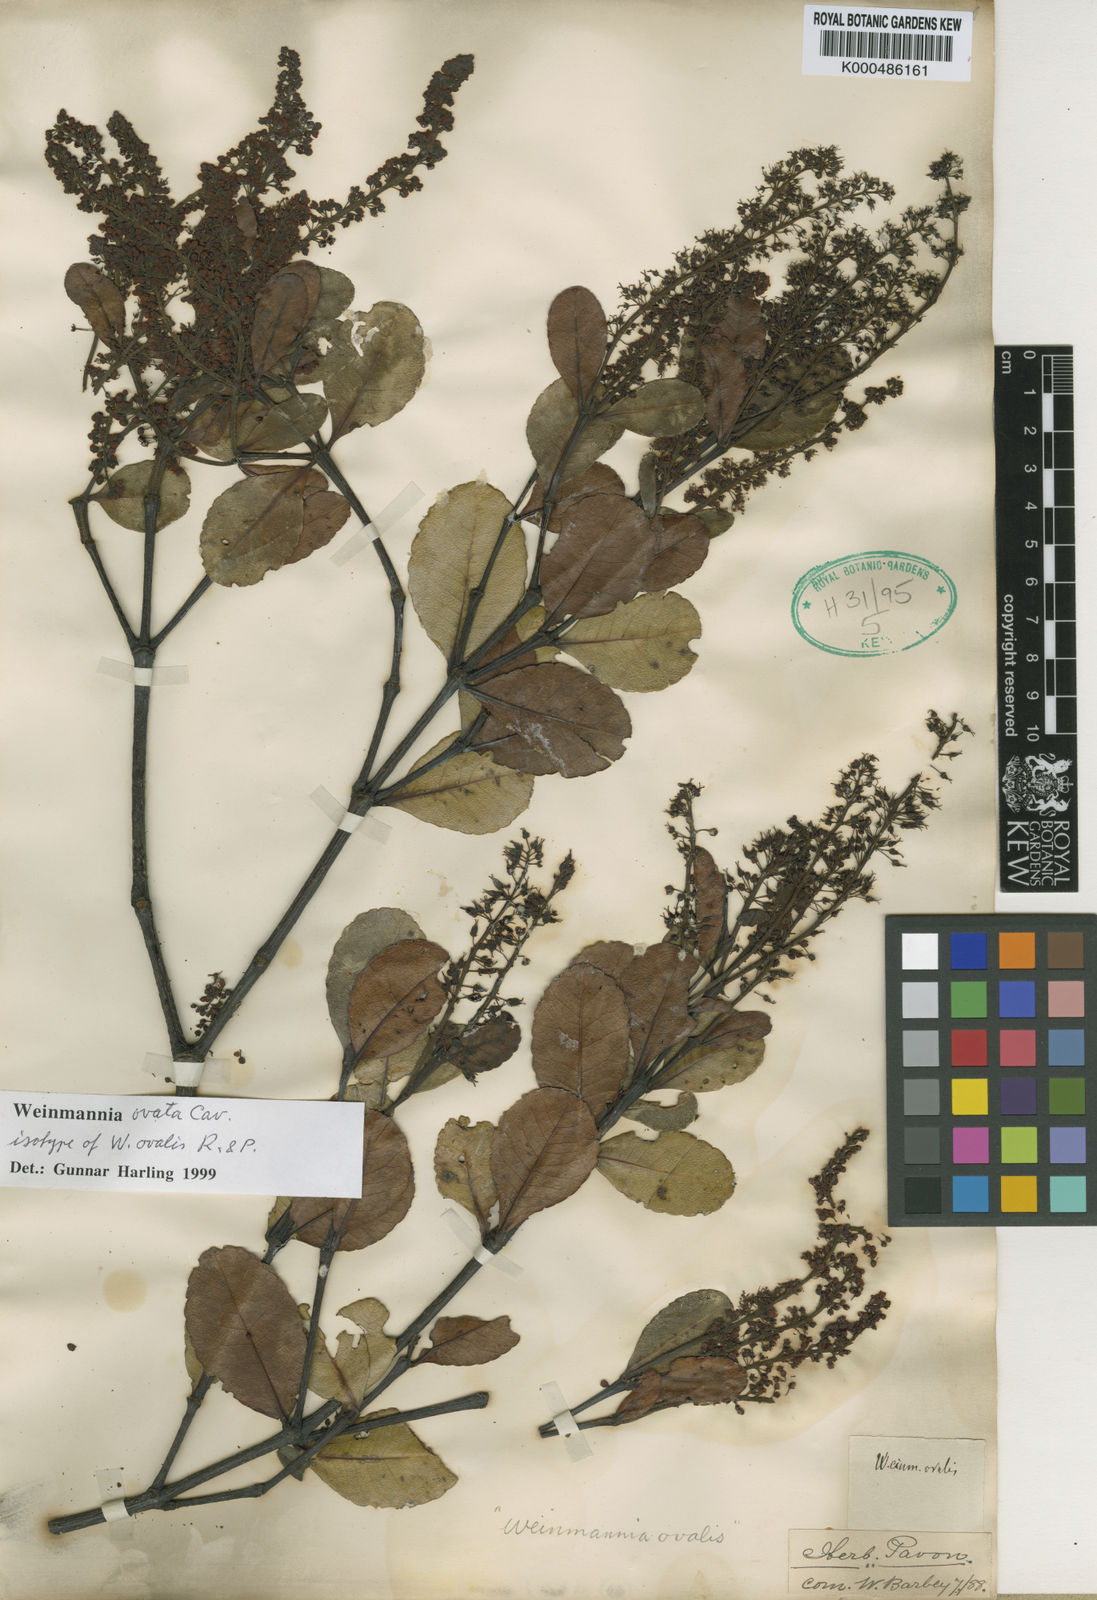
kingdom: Plantae
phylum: Tracheophyta
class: Magnoliopsida
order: Oxalidales
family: Cunoniaceae
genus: Weinmannia
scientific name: Weinmannia ovata
